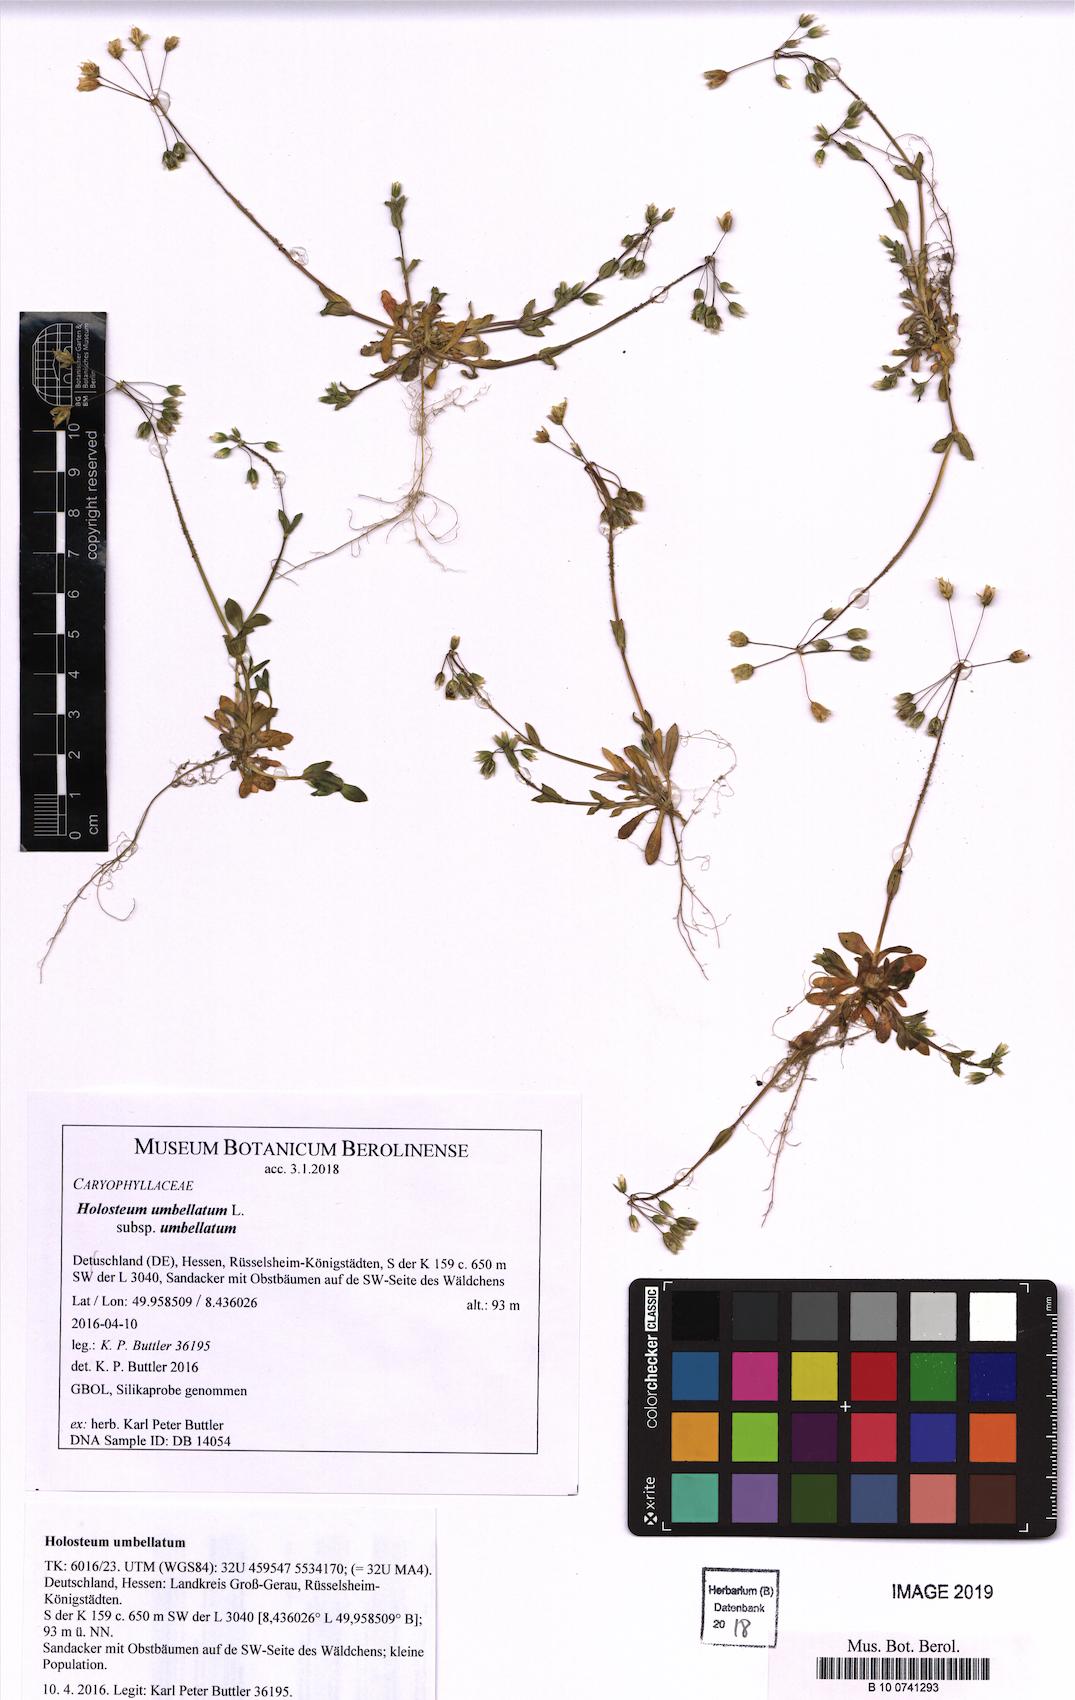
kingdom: Plantae
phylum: Tracheophyta
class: Magnoliopsida
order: Caryophyllales
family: Caryophyllaceae
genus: Holosteum
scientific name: Holosteum umbellatum
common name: Jagged chickweed
